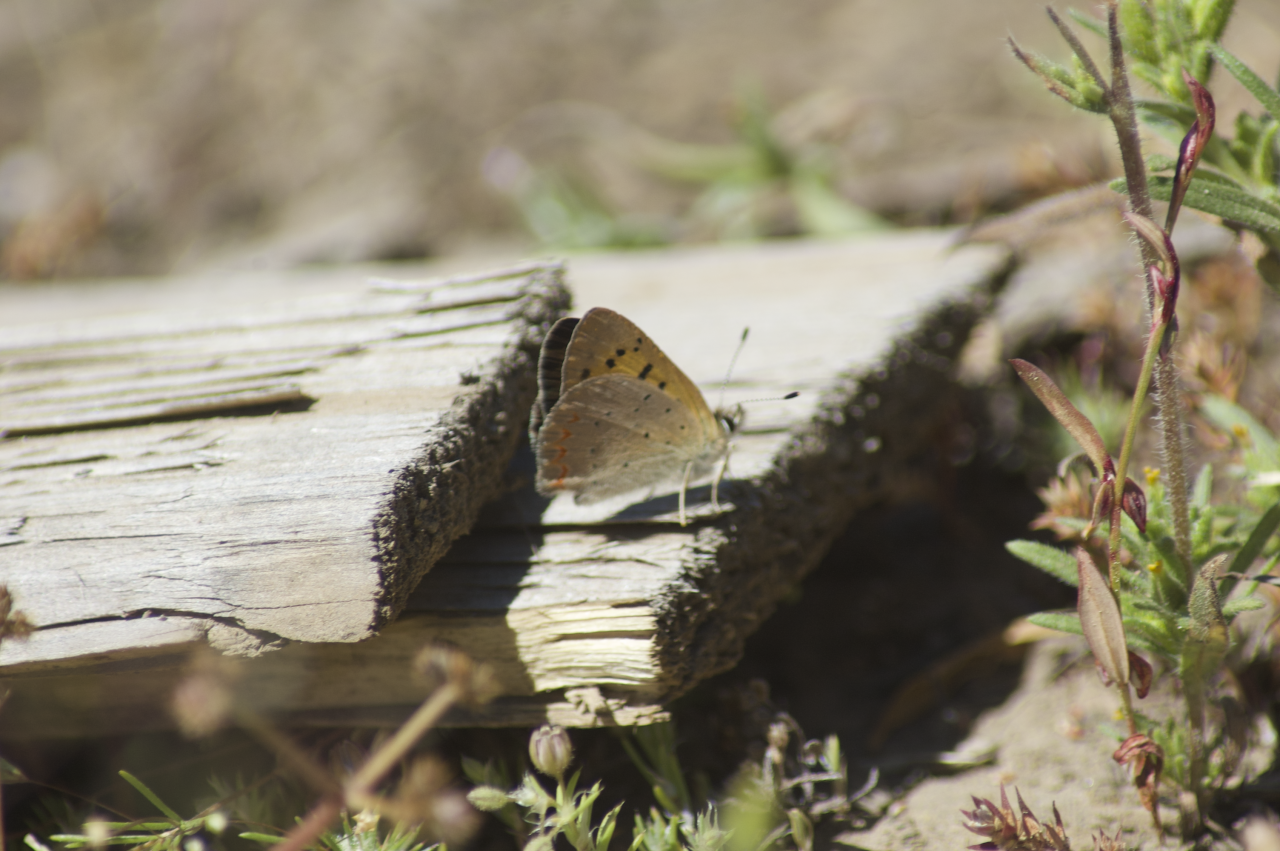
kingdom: Animalia
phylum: Arthropoda
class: Insecta
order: Lepidoptera
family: Sesiidae
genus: Sesia
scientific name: Sesia Lycaena helloides
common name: Purplish Copper
